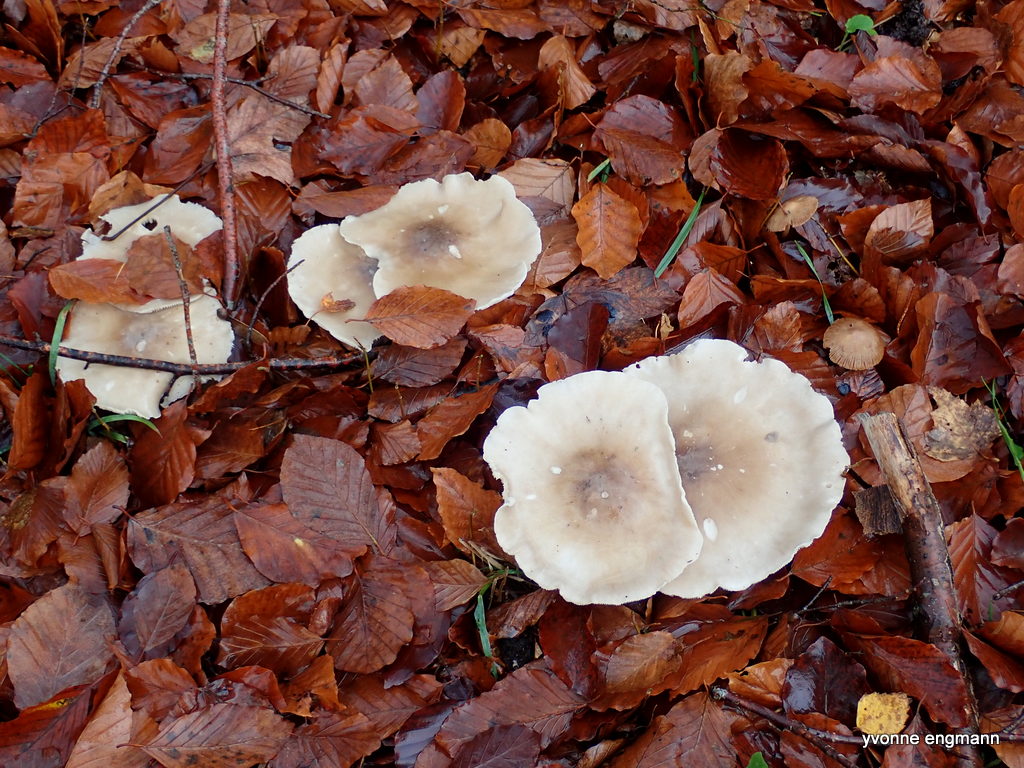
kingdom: Fungi
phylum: Basidiomycota
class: Agaricomycetes
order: Agaricales
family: Tricholomataceae
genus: Clitocybe
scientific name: Clitocybe nebularis
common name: tåge-tragthat
